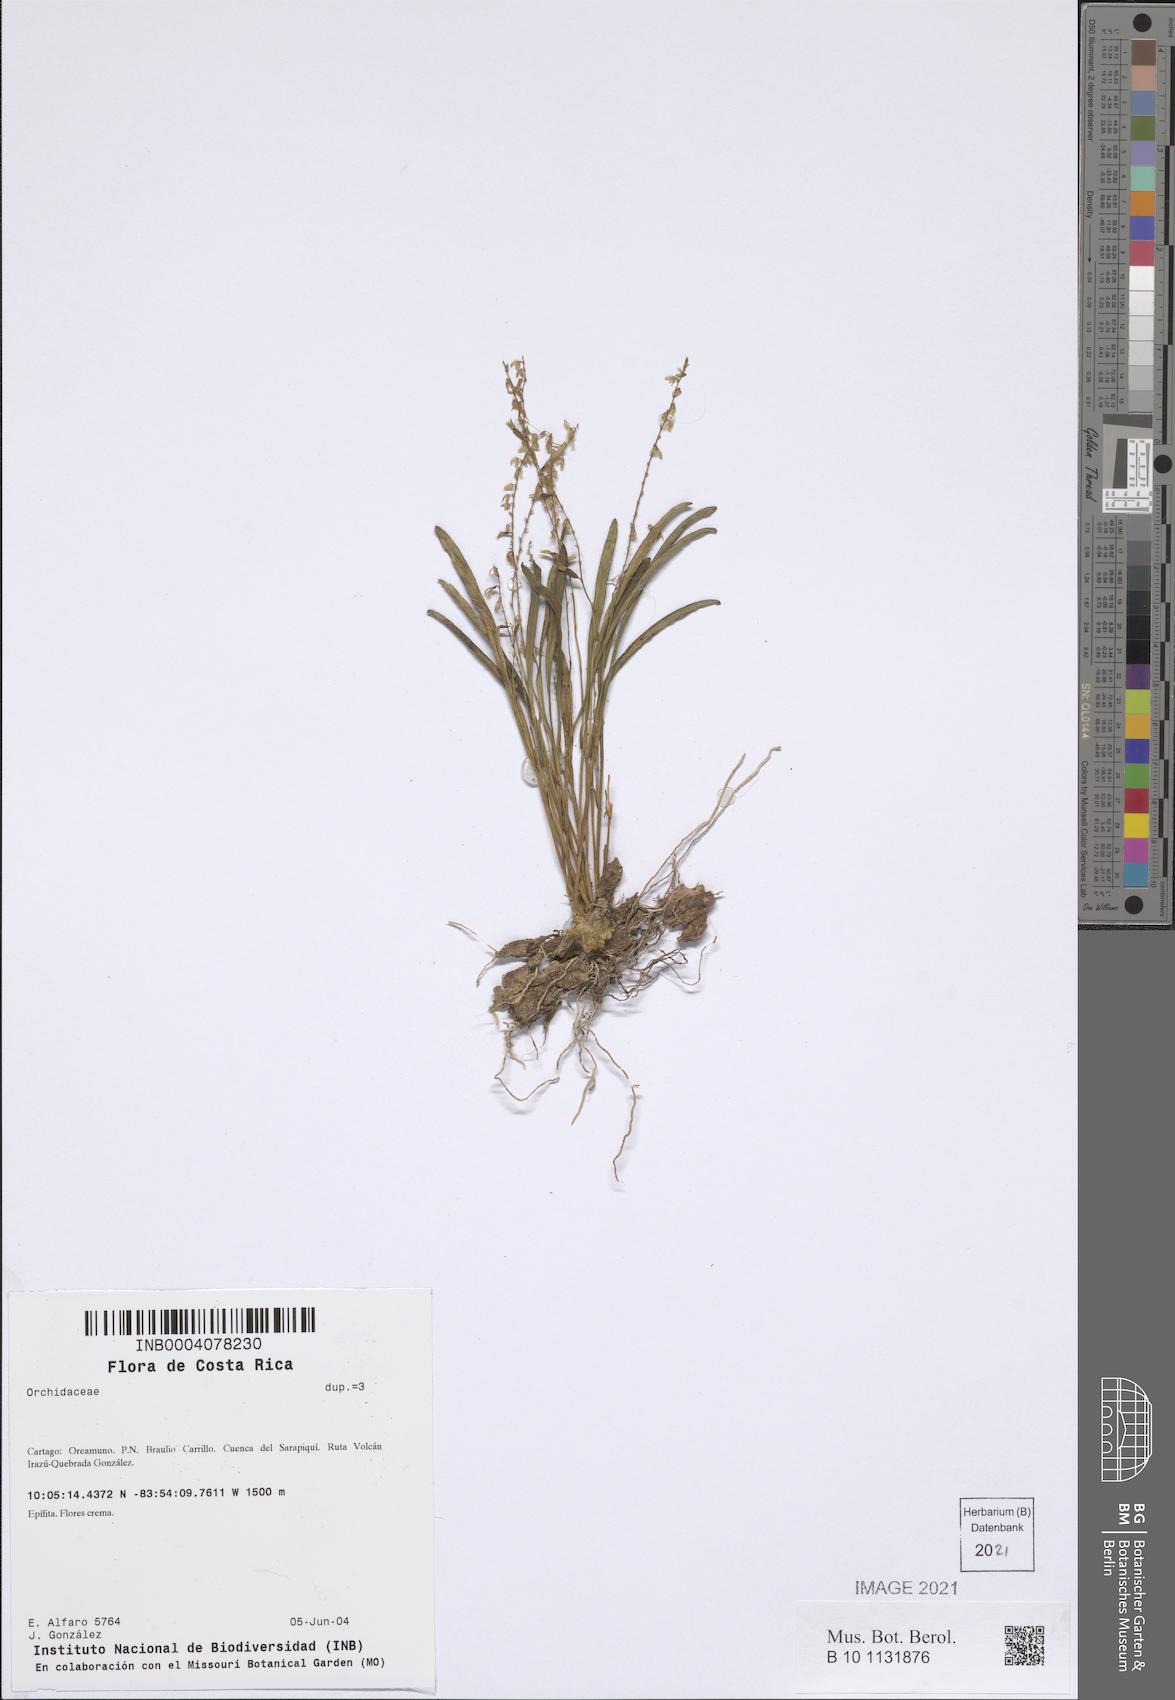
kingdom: Plantae
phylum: Tracheophyta
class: Liliopsida
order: Asparagales
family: Orchidaceae
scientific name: Orchidaceae
